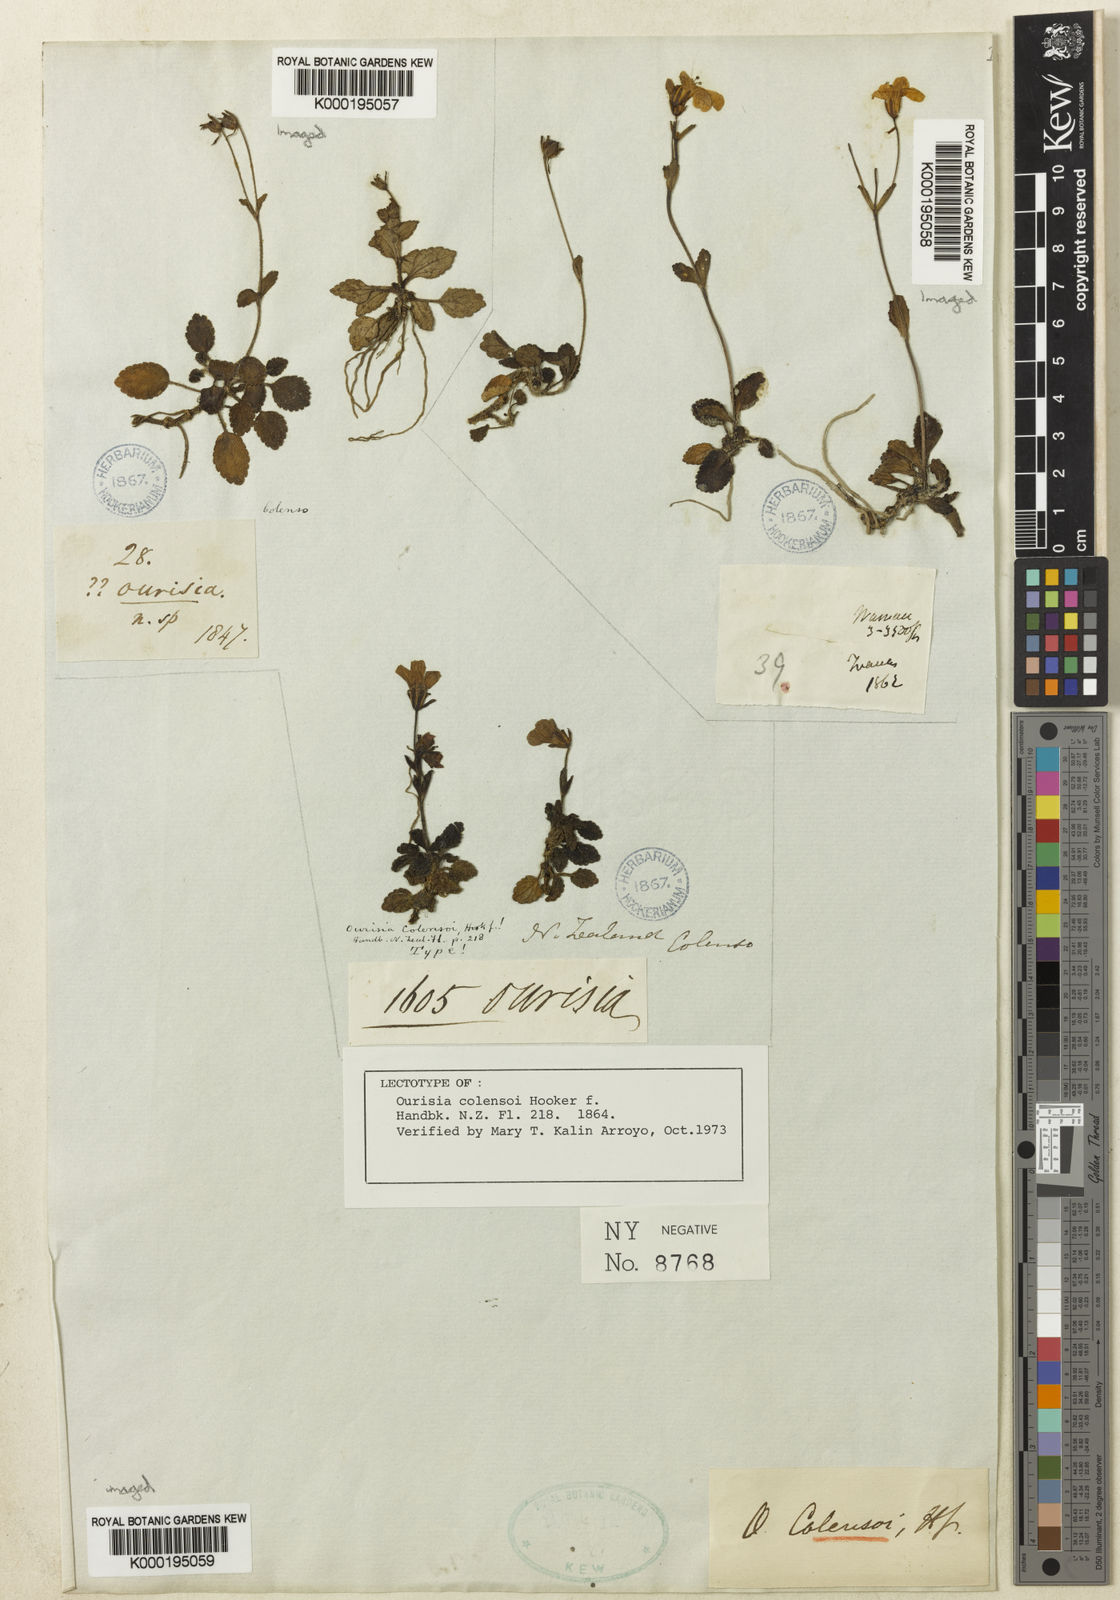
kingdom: Plantae
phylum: Tracheophyta
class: Magnoliopsida
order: Lamiales
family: Plantaginaceae
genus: Ourisia
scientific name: Ourisia macrophylla
